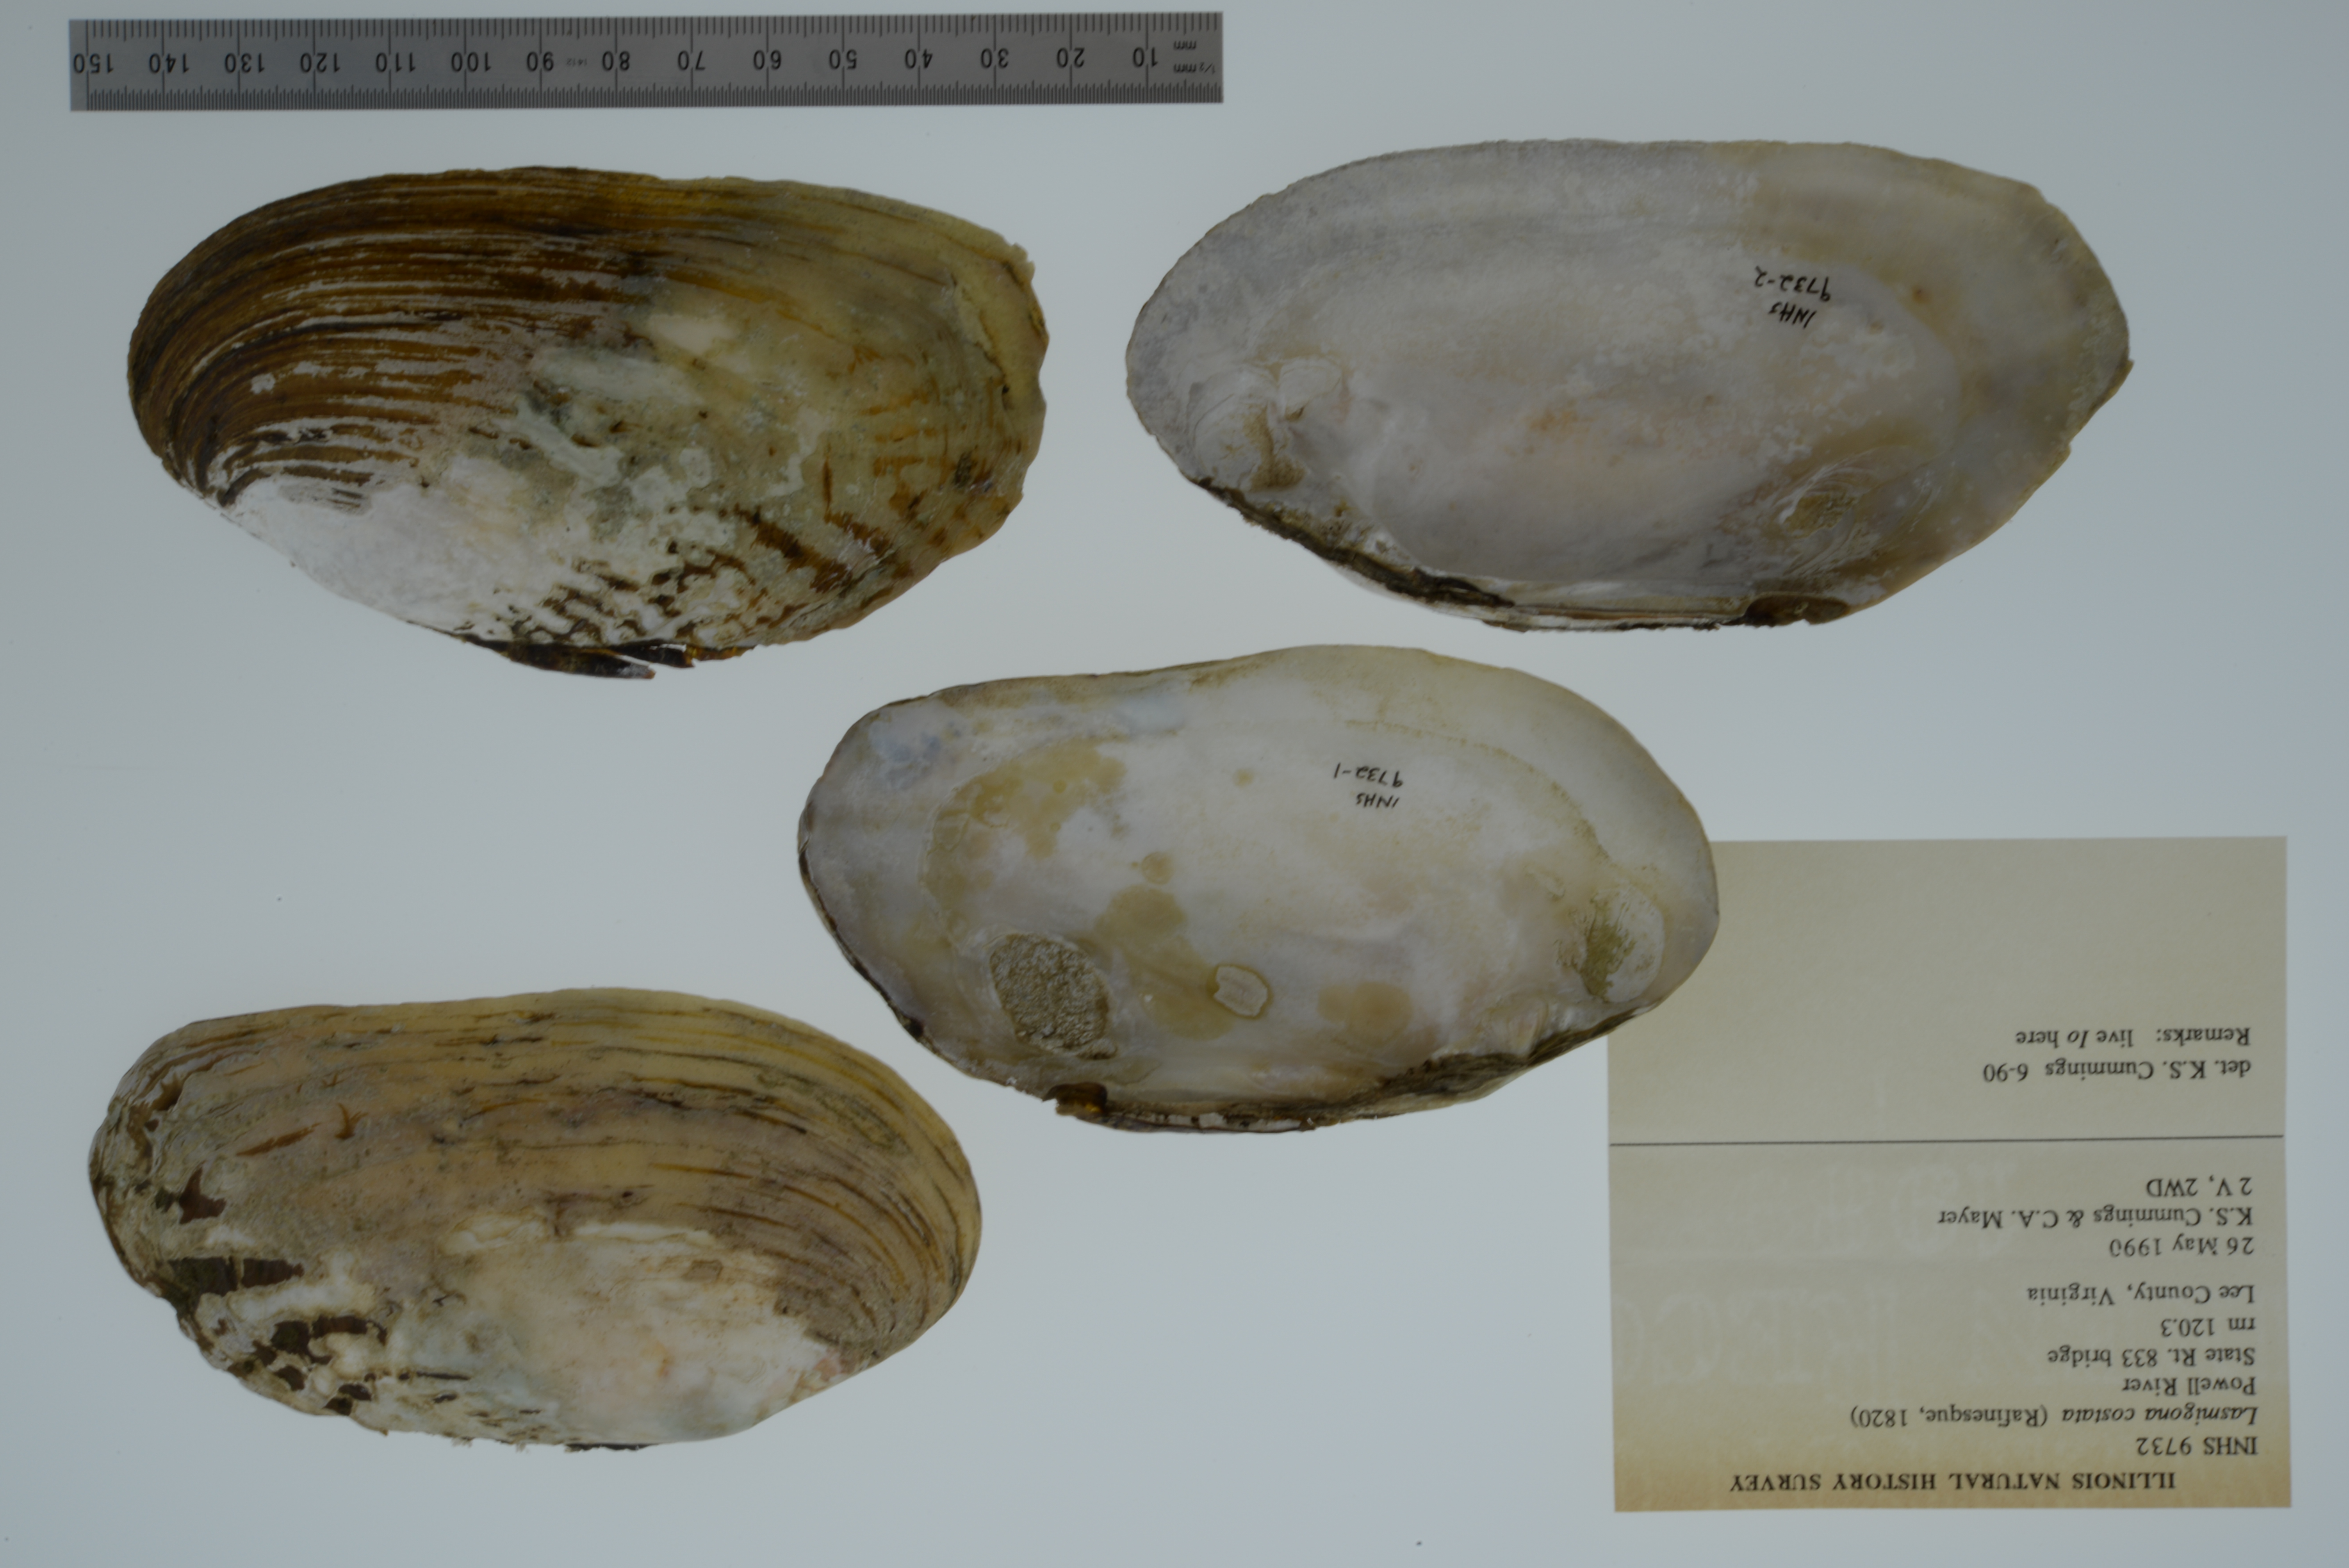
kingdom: Animalia
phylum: Mollusca
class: Bivalvia
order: Unionida
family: Unionidae
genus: Lasmigona
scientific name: Lasmigona costata
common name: Flutedshell
